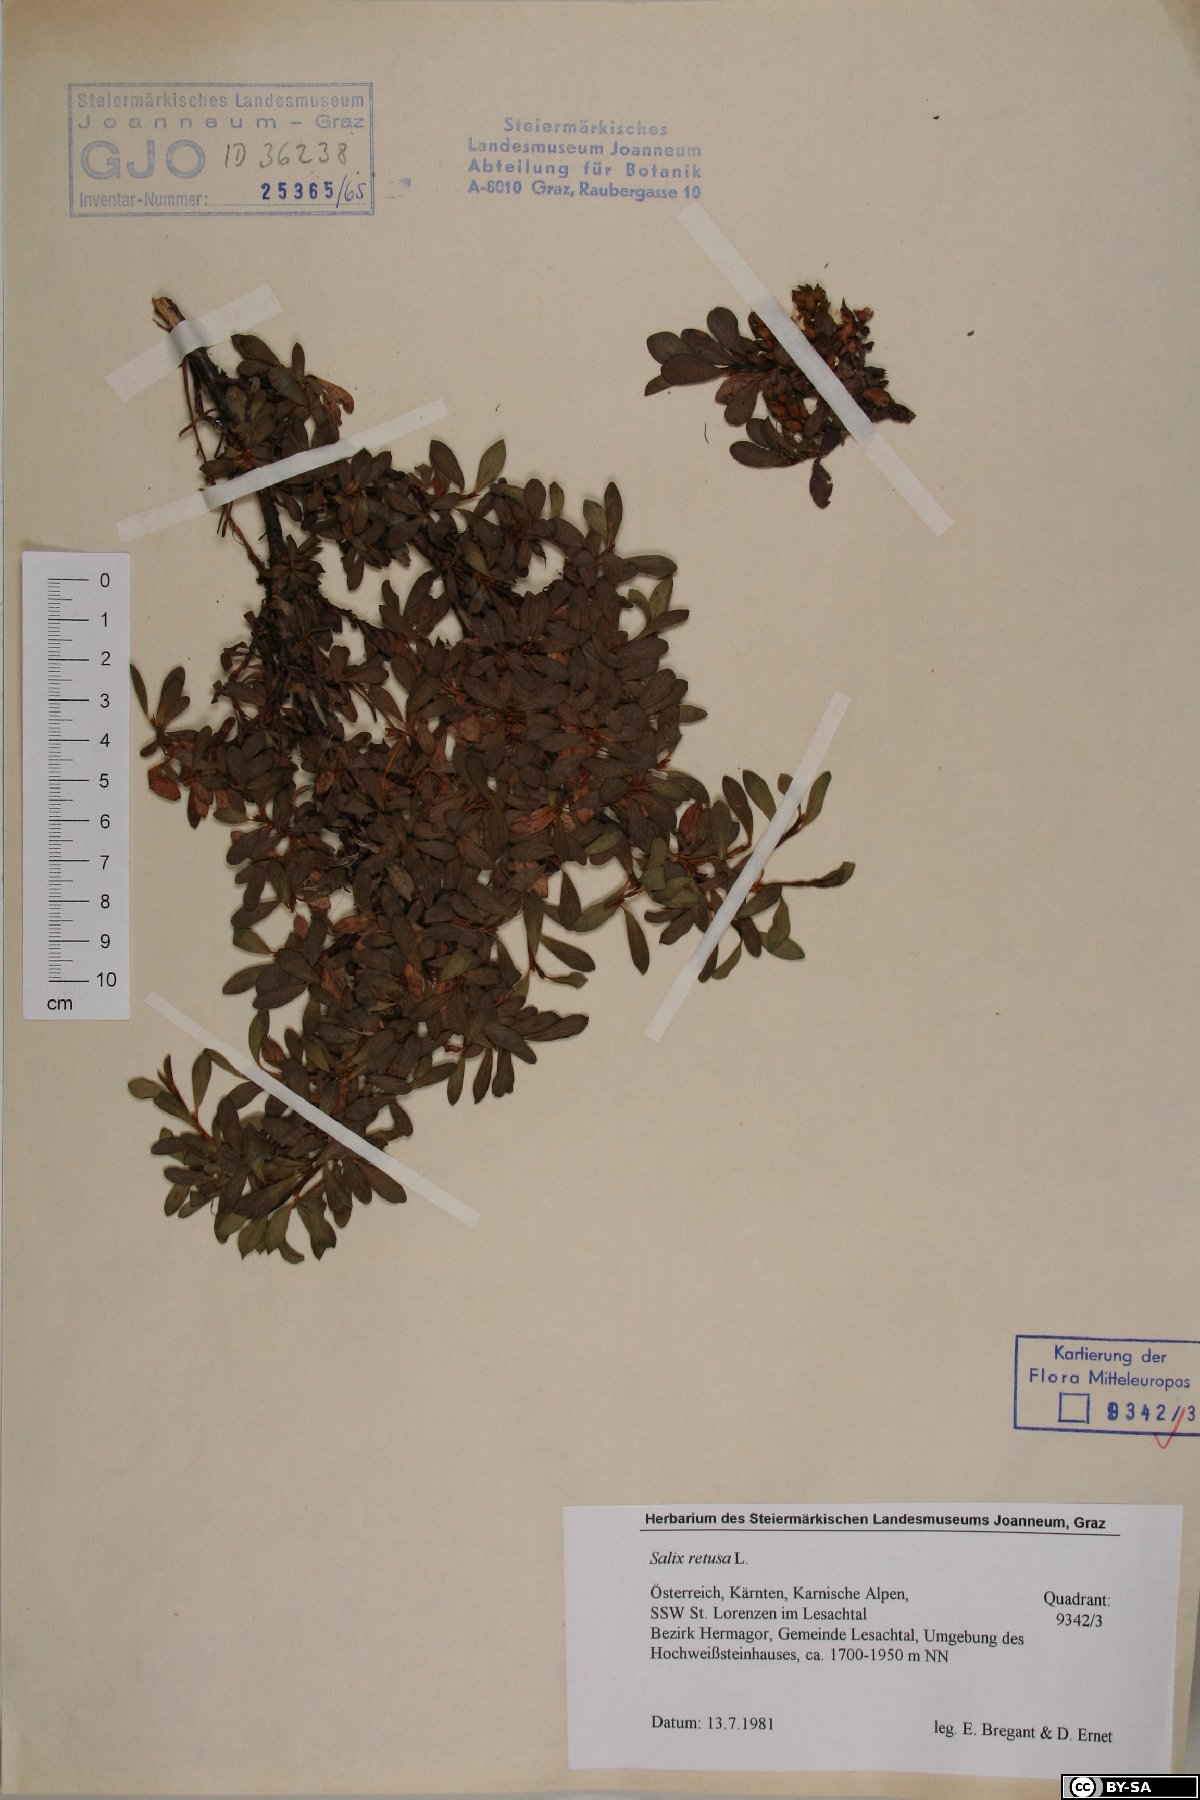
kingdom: Plantae
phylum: Tracheophyta
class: Magnoliopsida
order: Malpighiales
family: Salicaceae
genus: Salix
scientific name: Salix retusa
